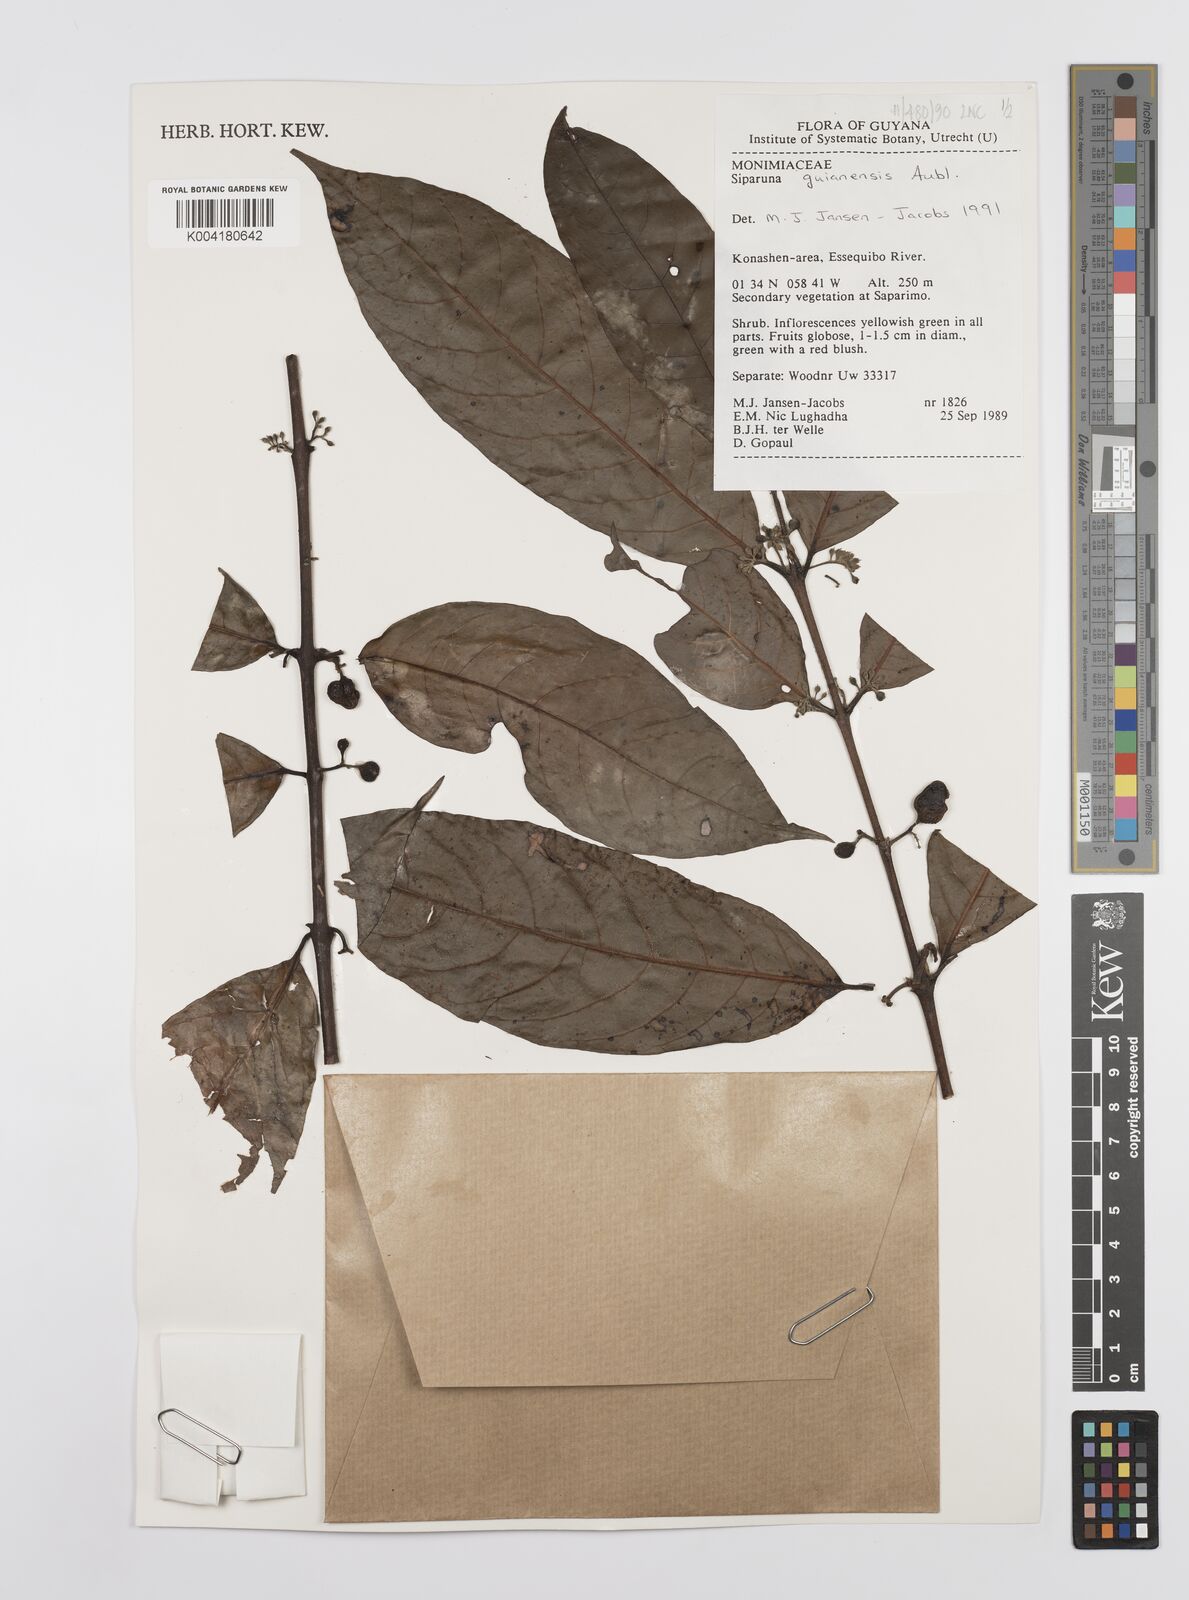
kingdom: Plantae
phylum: Tracheophyta
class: Magnoliopsida
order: Laurales
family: Siparunaceae
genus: Siparuna
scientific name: Siparuna guianensis
